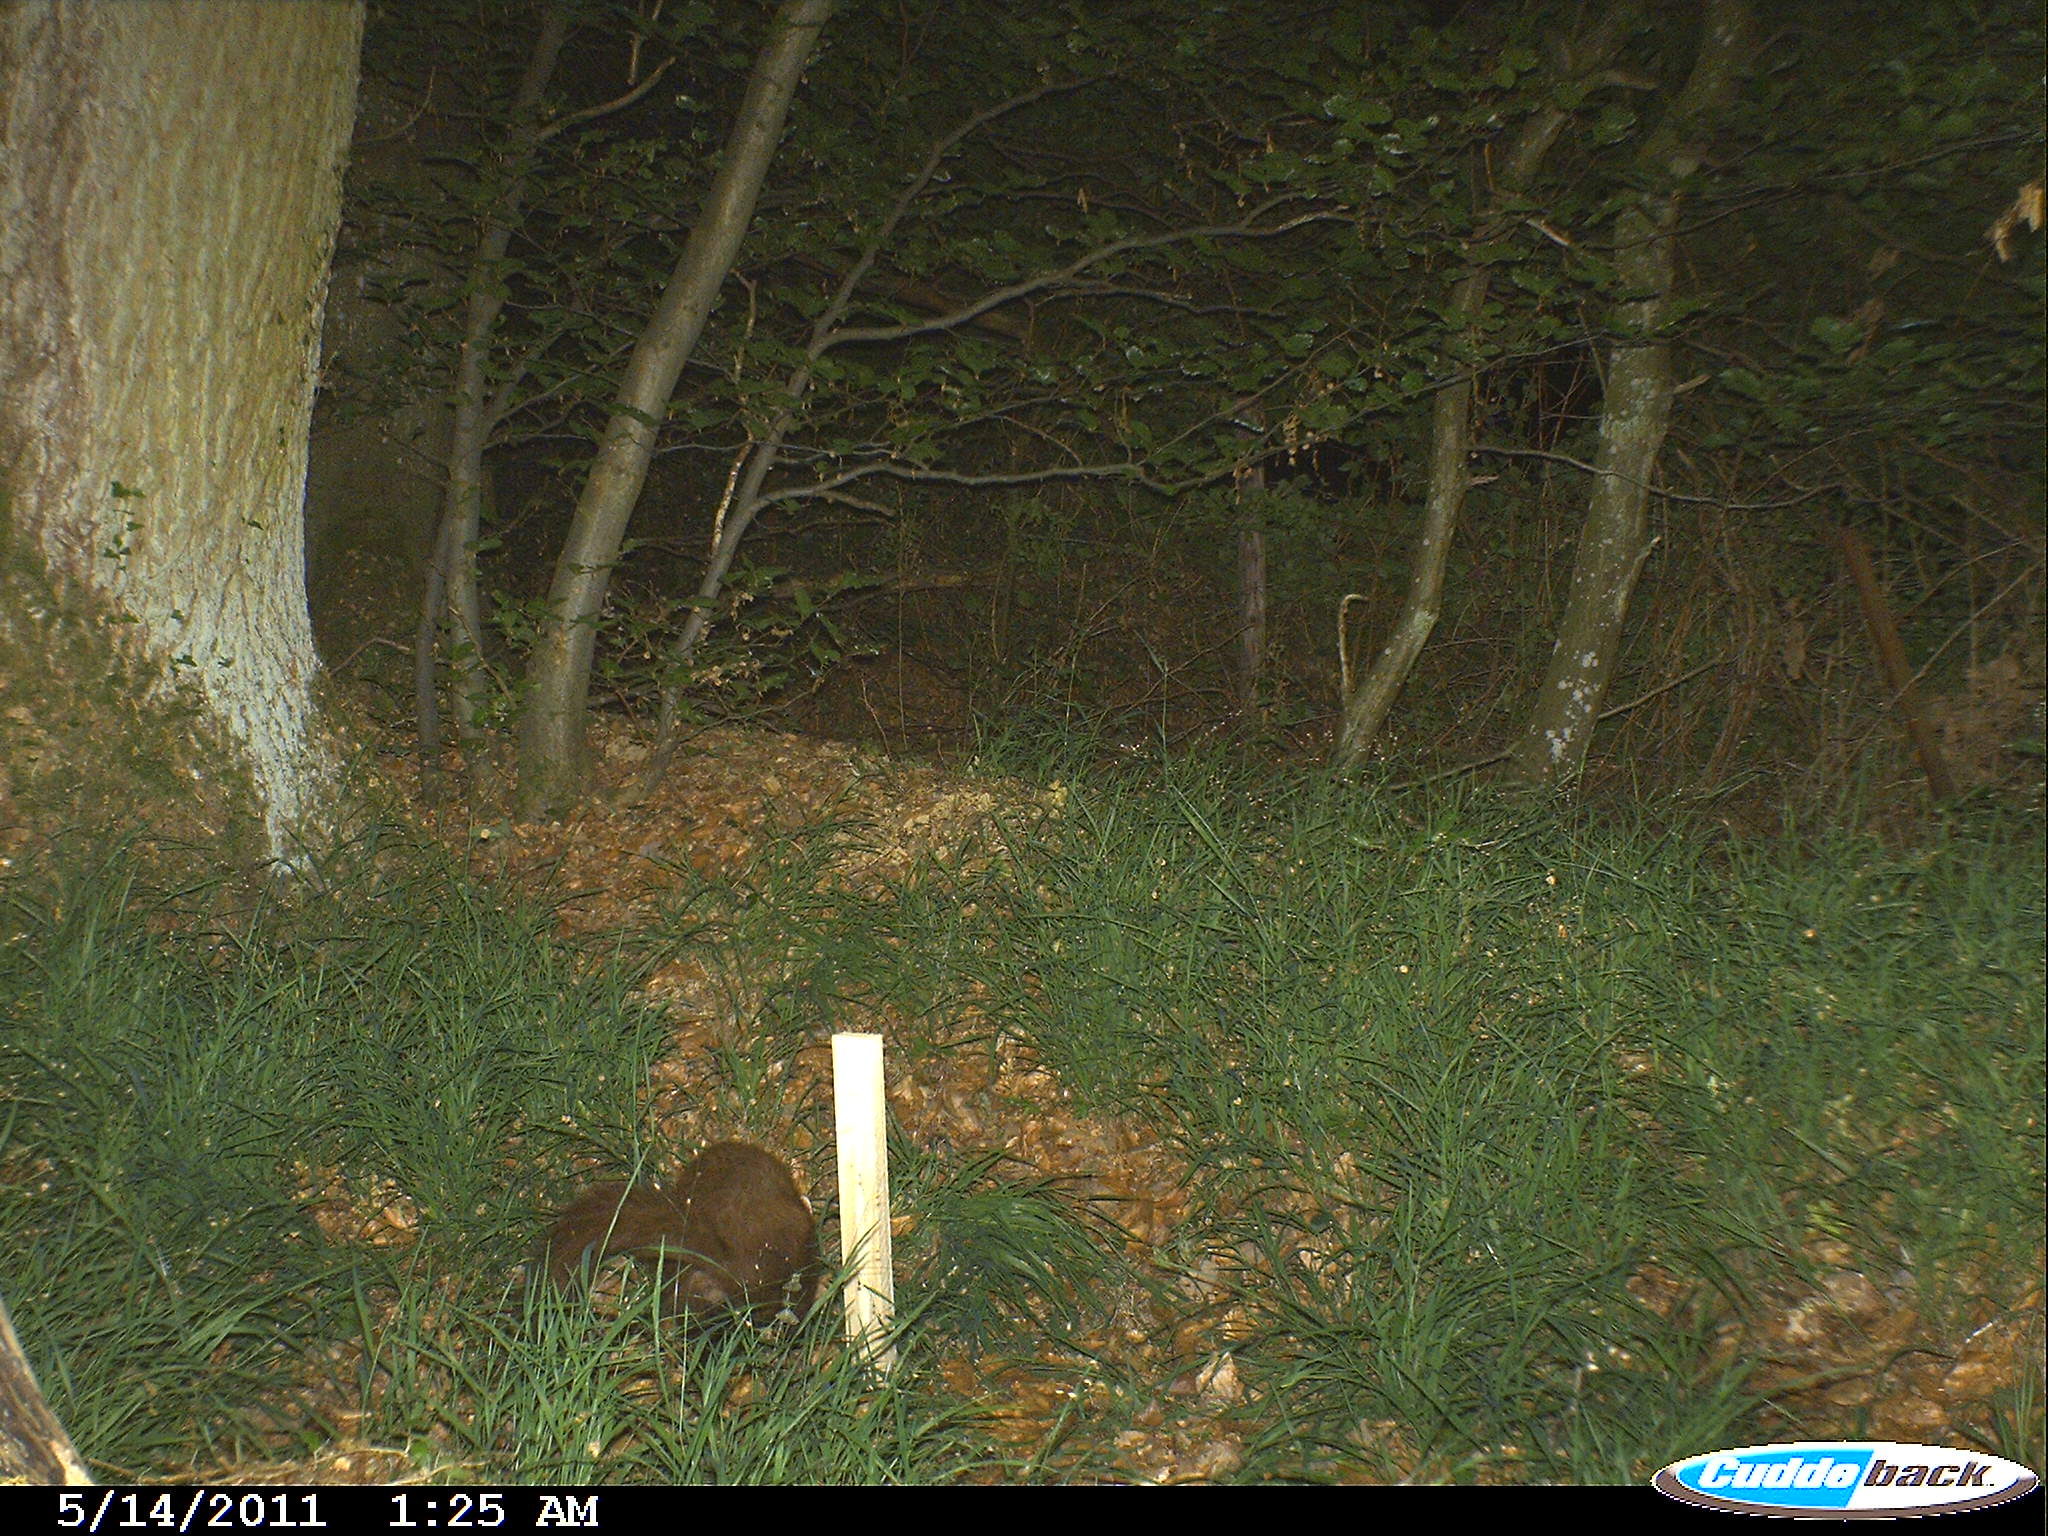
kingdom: Animalia
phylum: Chordata
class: Mammalia
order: Carnivora
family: Mustelidae
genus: Martes
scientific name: Martes
